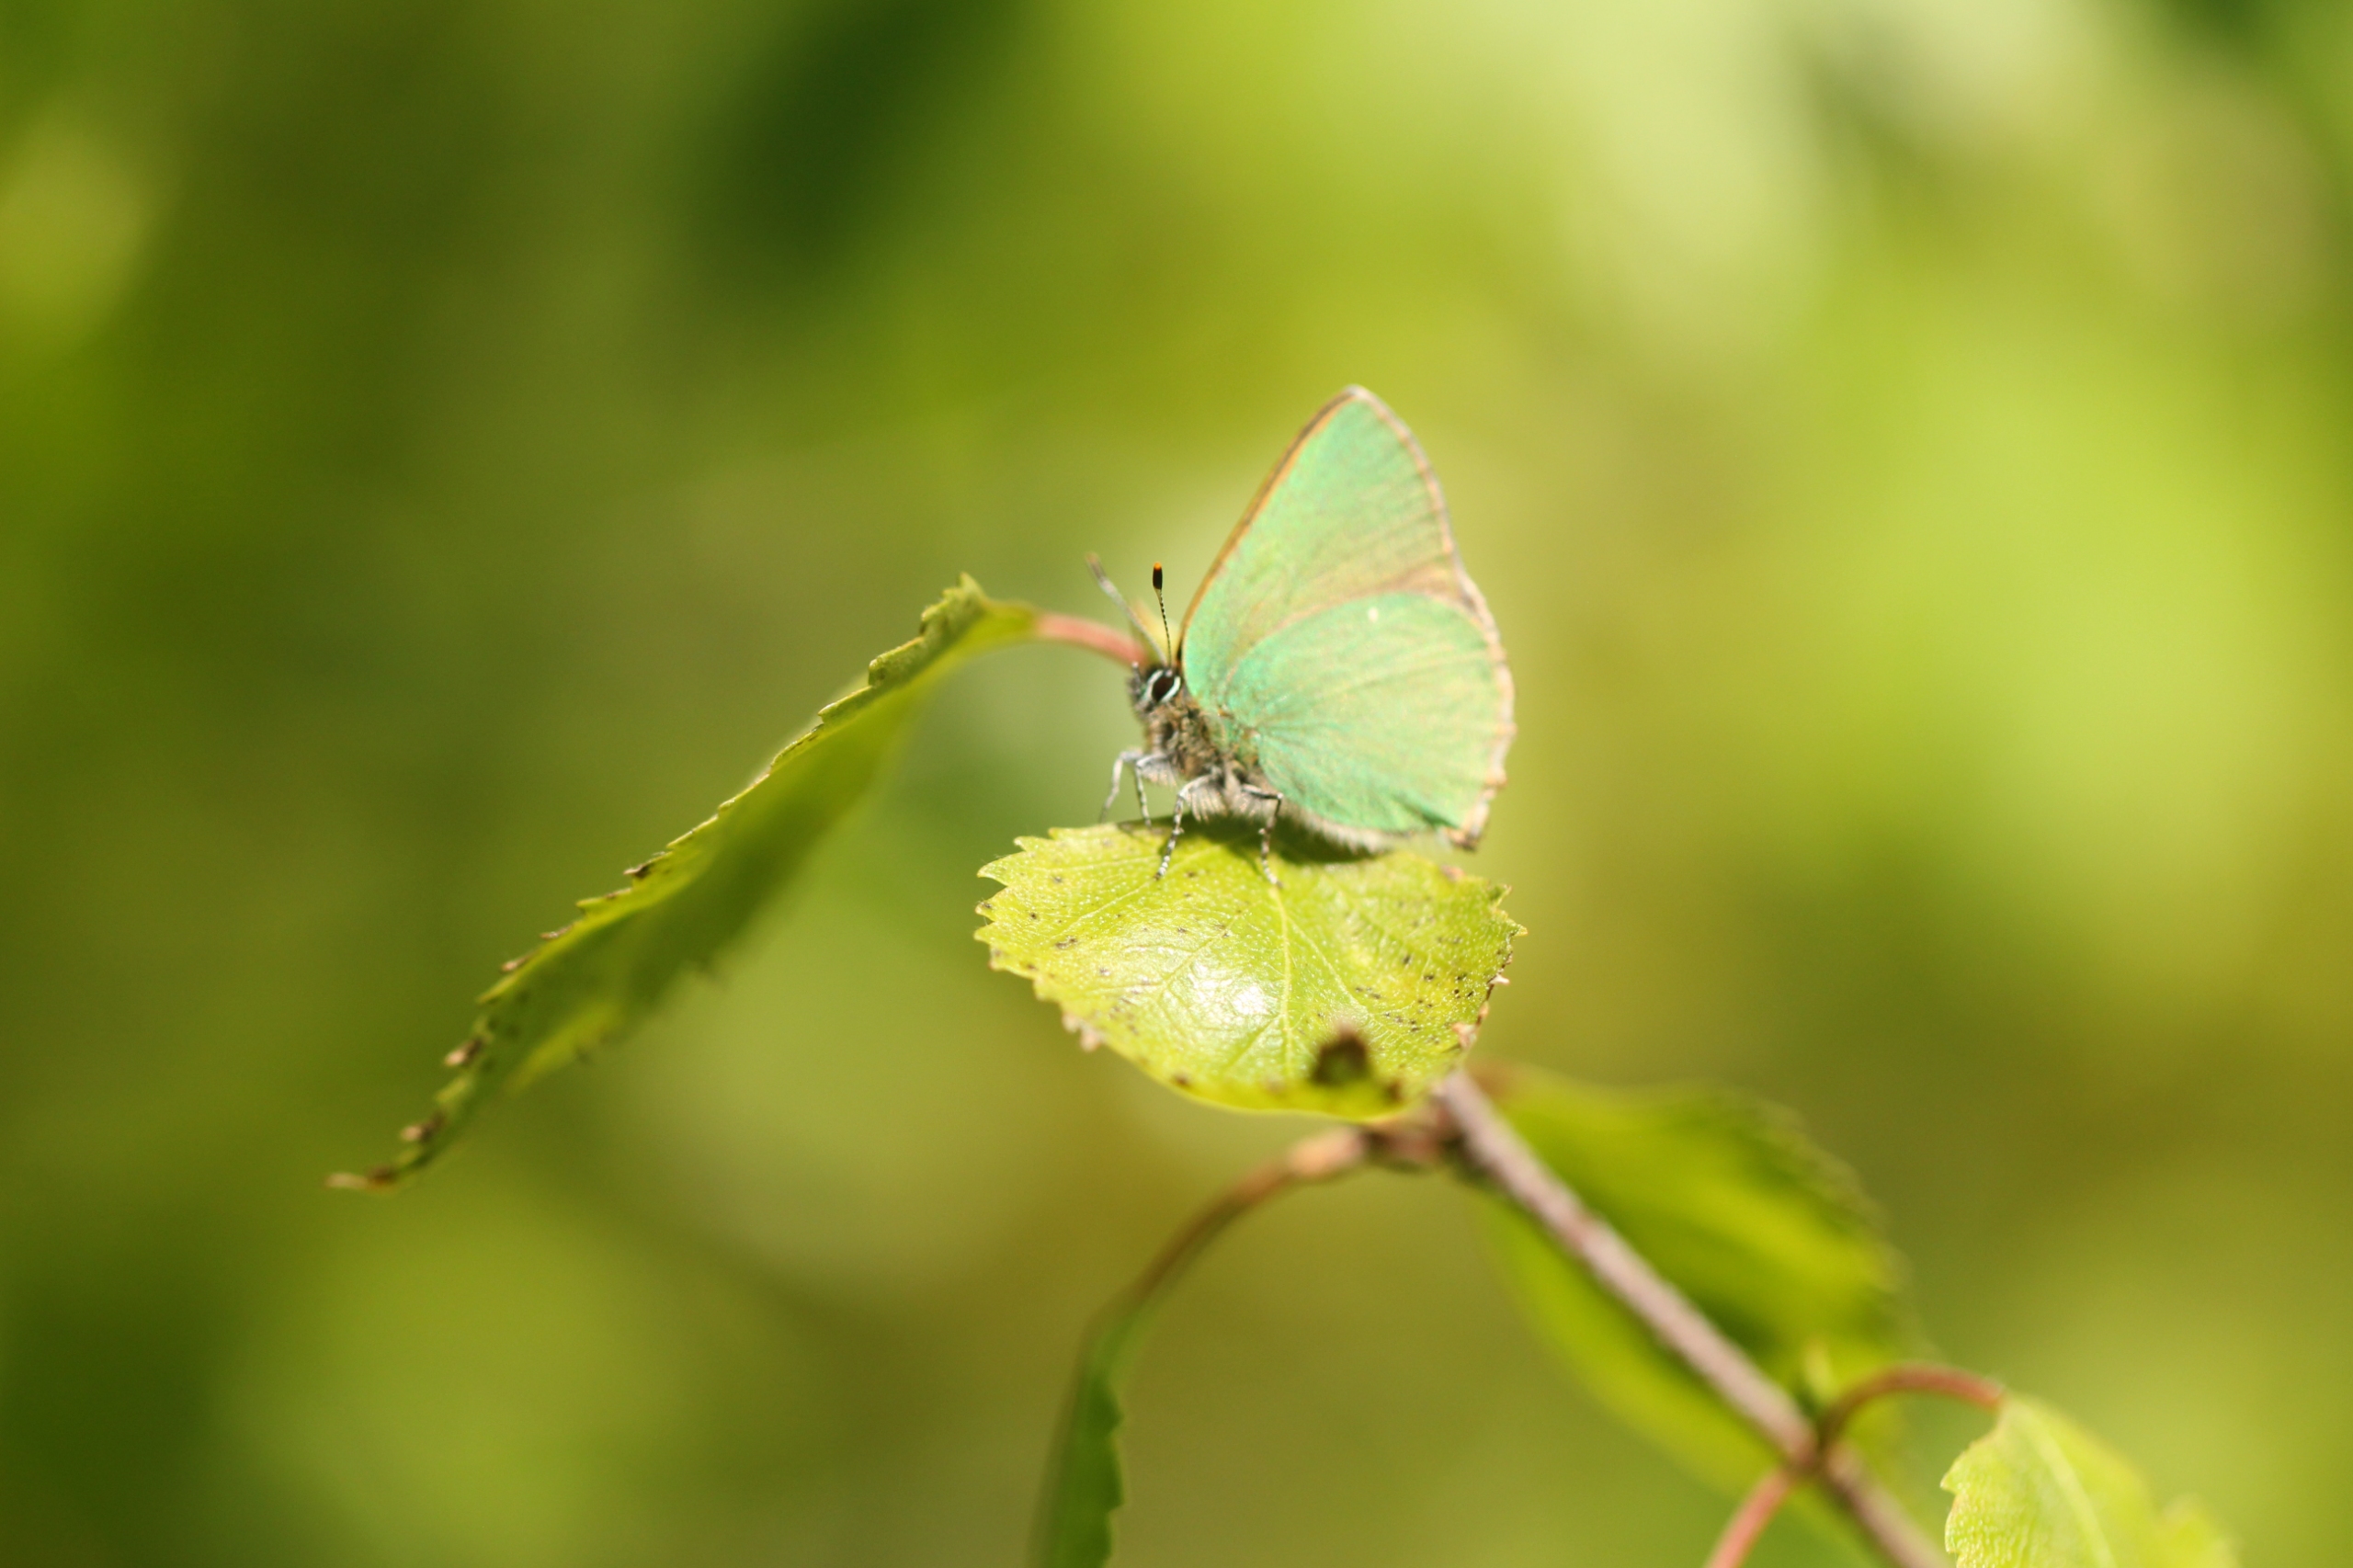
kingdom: Animalia
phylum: Arthropoda
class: Insecta
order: Lepidoptera
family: Lycaenidae
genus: Callophrys
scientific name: Callophrys rubi
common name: Grøn busksommerfugl
